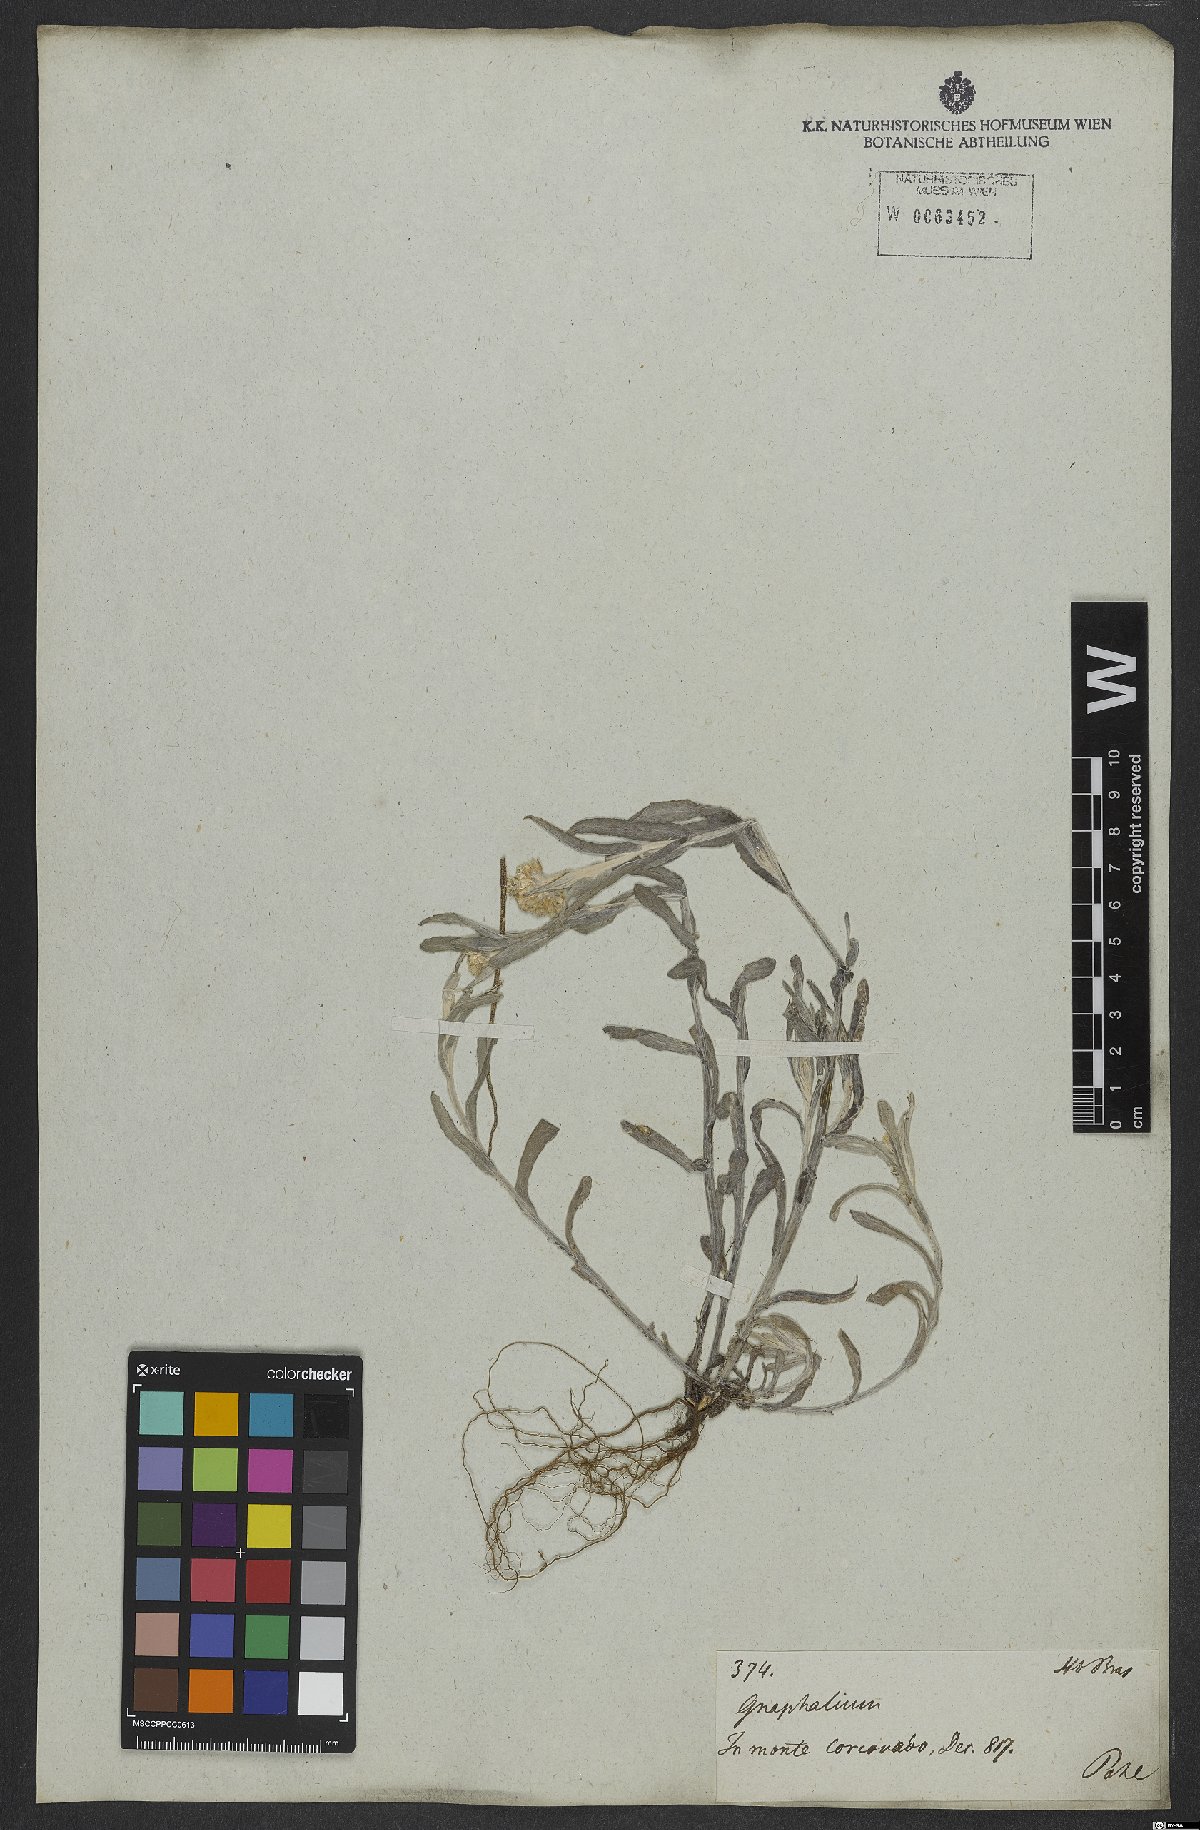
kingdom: Plantae
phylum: Tracheophyta
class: Magnoliopsida
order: Asterales
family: Asteraceae
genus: Helichrysum
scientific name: Helichrysum luteoalbum
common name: Daisy
